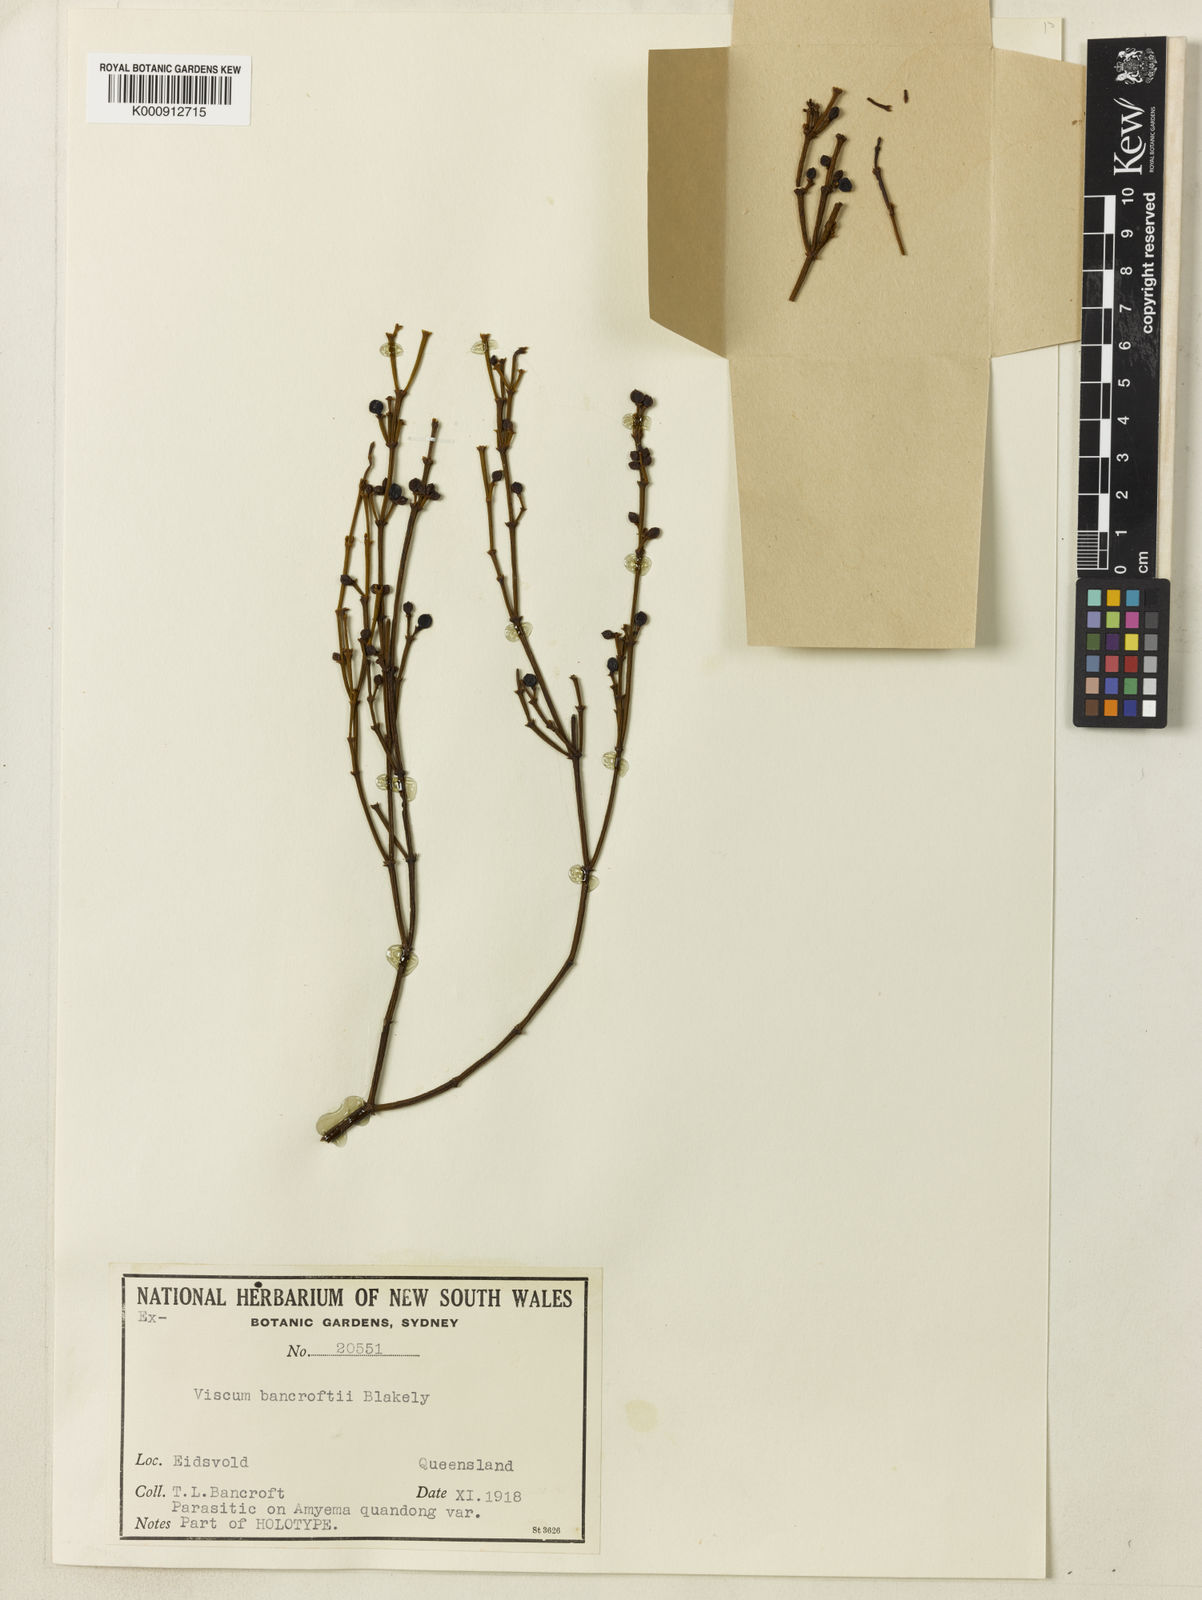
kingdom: Plantae
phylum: Tracheophyta
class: Magnoliopsida
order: Santalales
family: Viscaceae
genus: Viscum
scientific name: Viscum bancroftii
